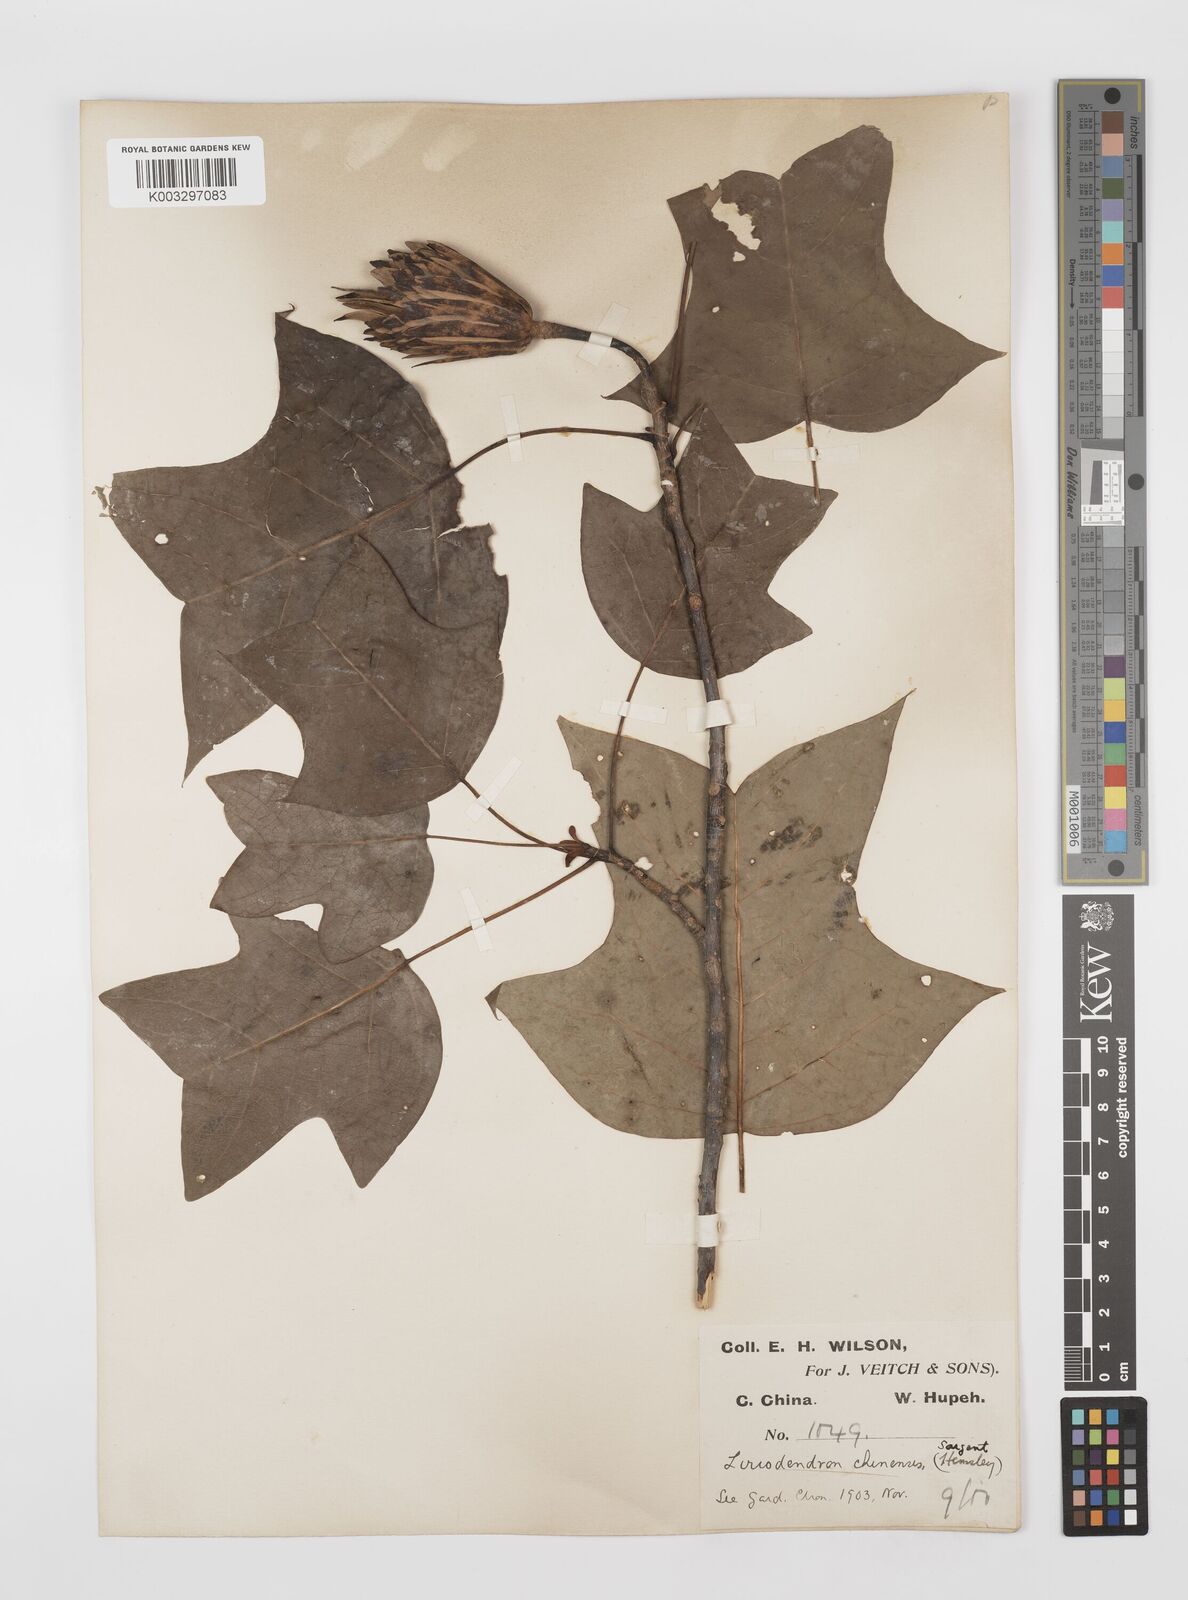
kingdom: Plantae
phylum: Tracheophyta
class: Magnoliopsida
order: Magnoliales
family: Magnoliaceae
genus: Liriodendron
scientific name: Liriodendron chinense
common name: Chinese tuliptree
